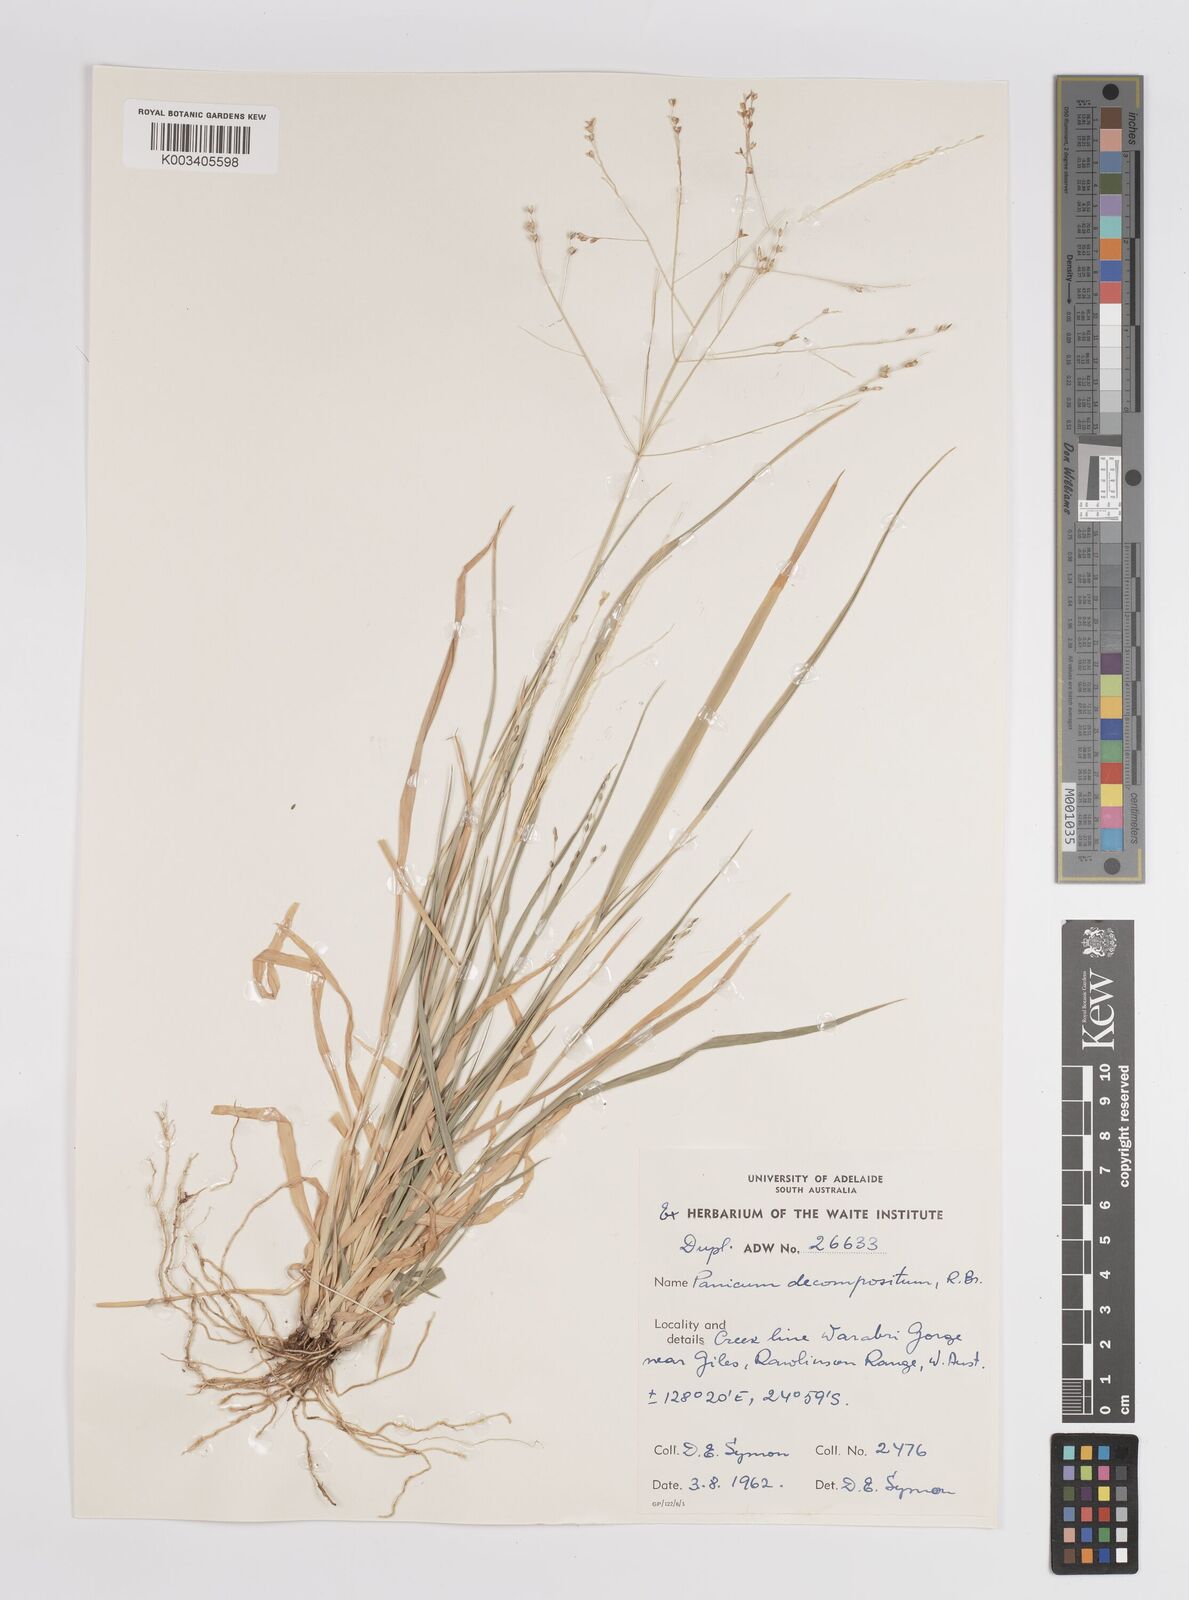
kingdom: Plantae
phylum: Tracheophyta
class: Liliopsida
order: Poales
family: Poaceae
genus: Panicum
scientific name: Panicum
